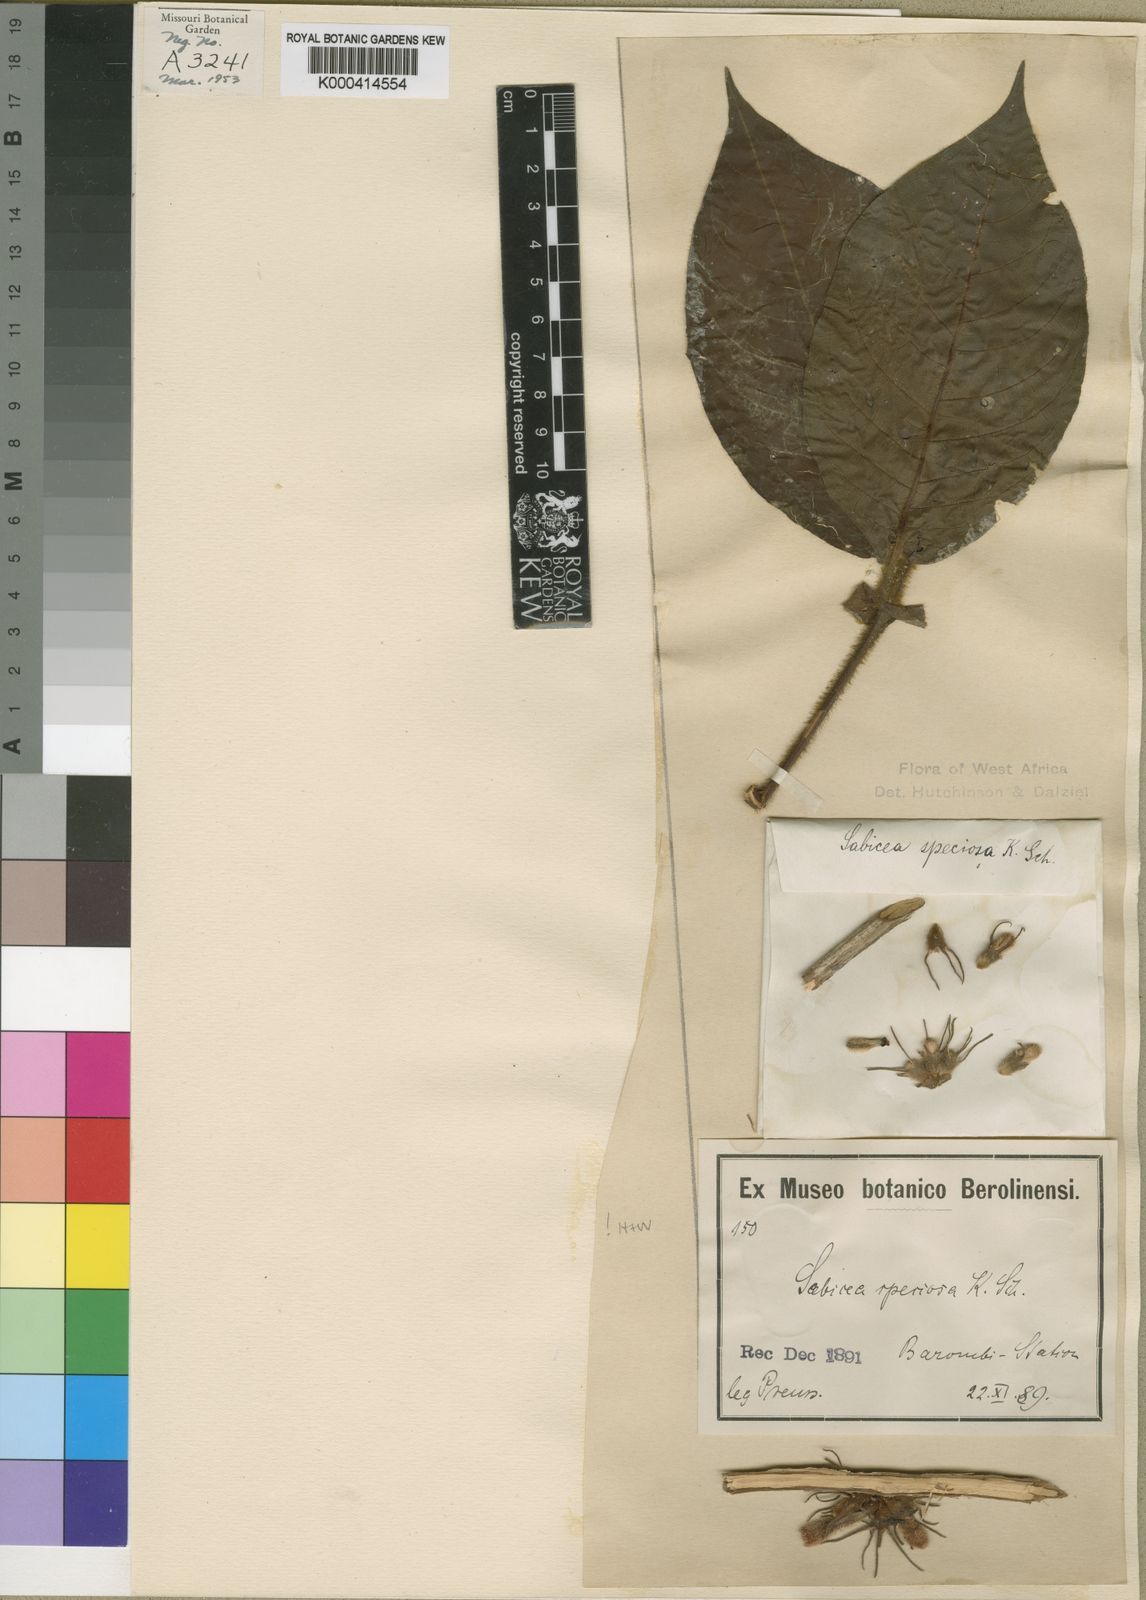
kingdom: Plantae
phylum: Tracheophyta
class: Magnoliopsida
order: Gentianales
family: Rubiaceae
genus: Sabicea
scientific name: Sabicea speciosa
